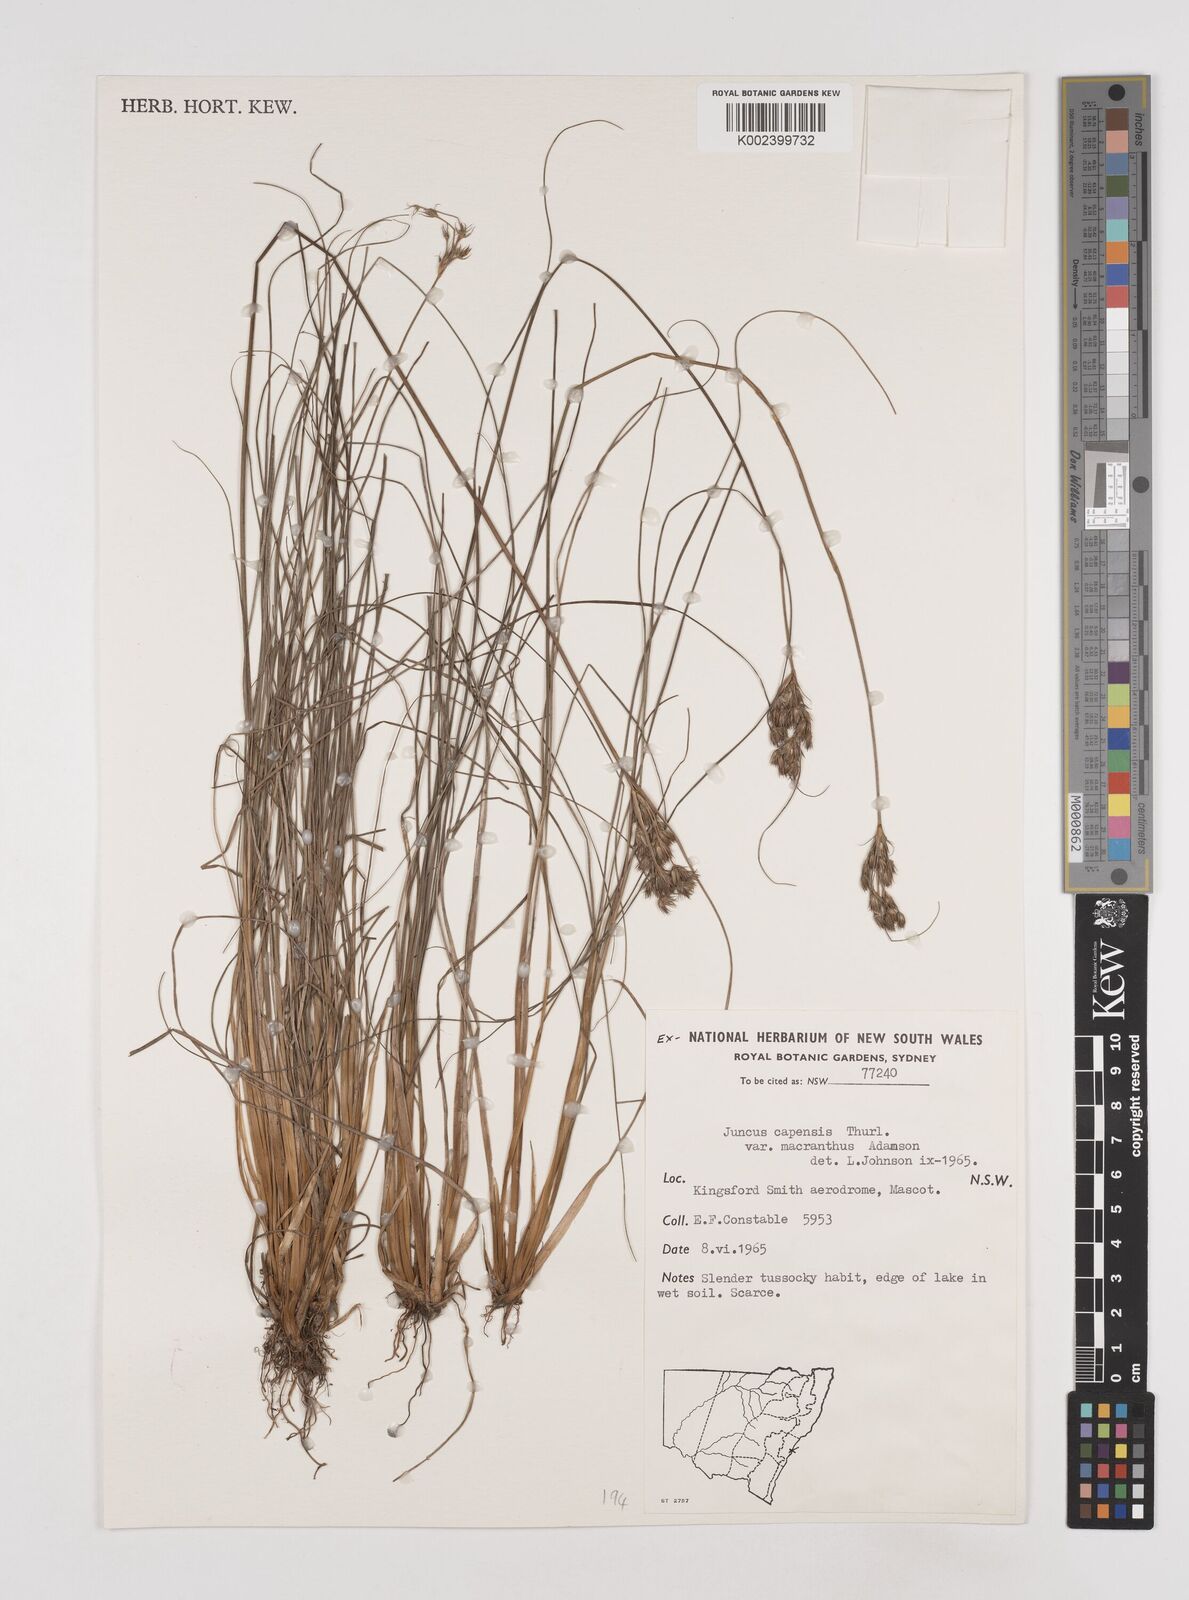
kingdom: Plantae
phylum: Tracheophyta
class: Liliopsida
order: Poales
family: Juncaceae
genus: Juncus
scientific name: Juncus capensis
